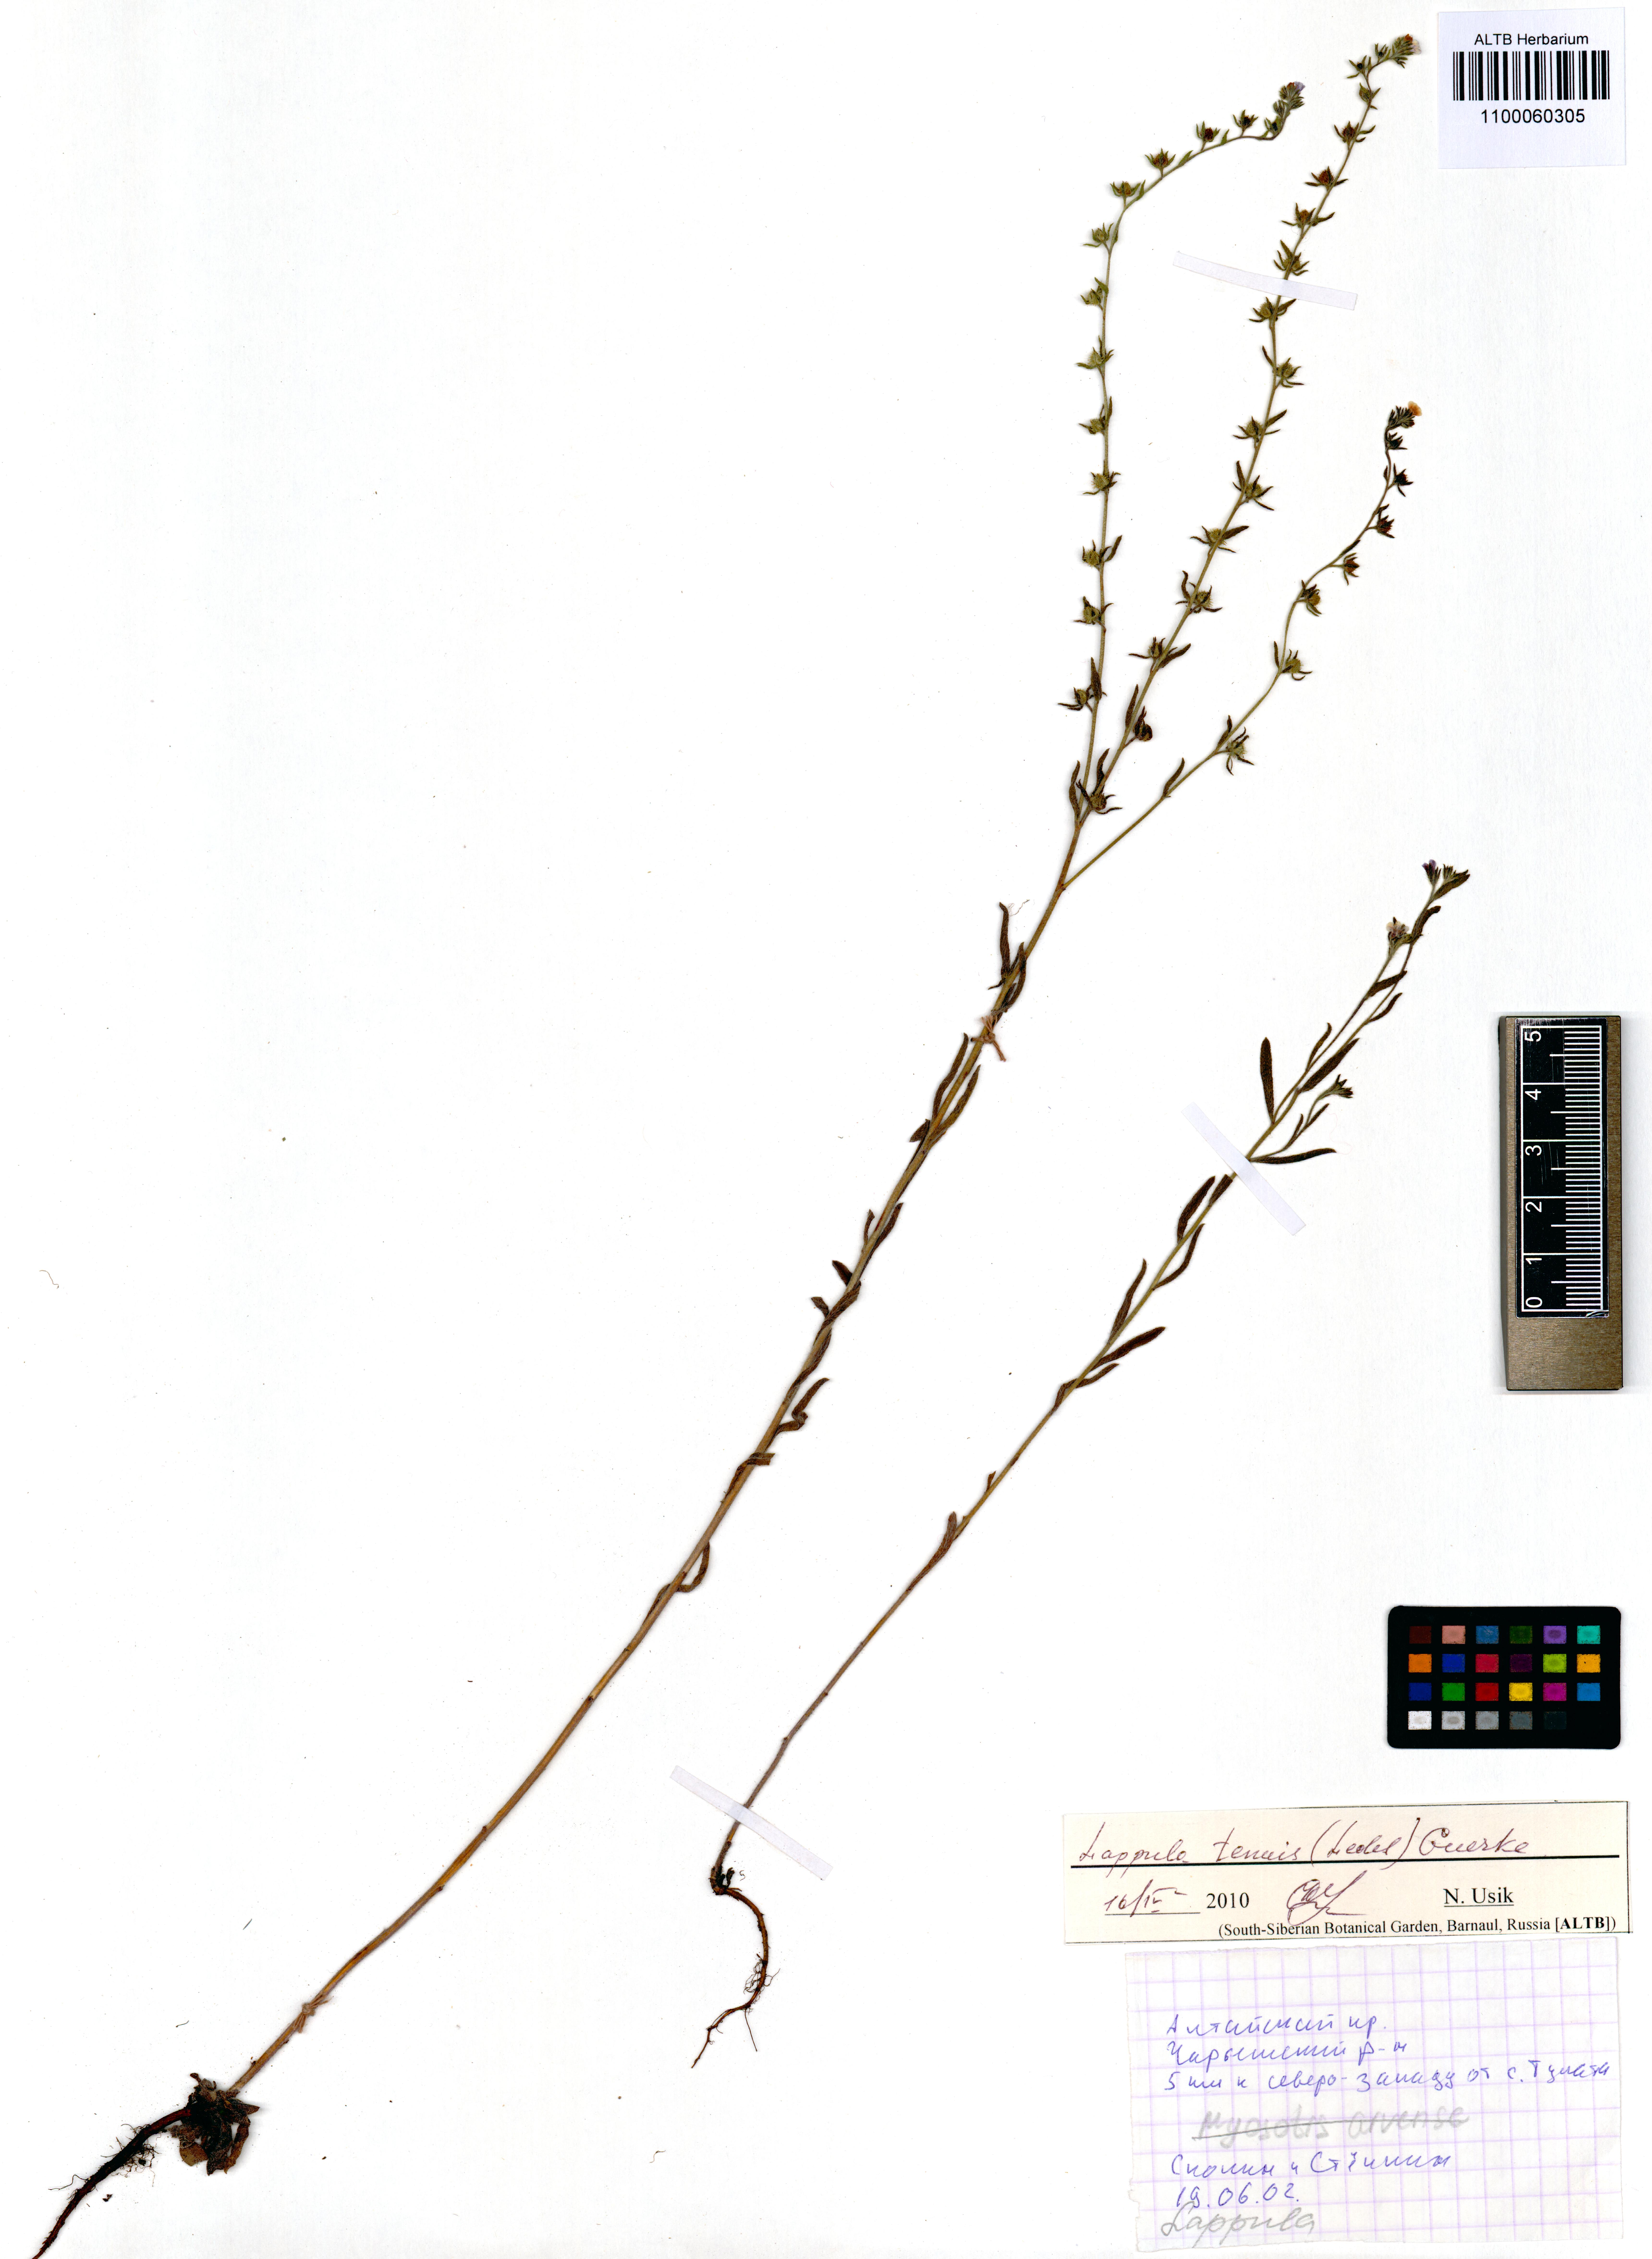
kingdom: Plantae
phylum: Tracheophyta
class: Magnoliopsida
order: Boraginales
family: Boraginaceae
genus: Lappula
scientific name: Lappula tenuis
